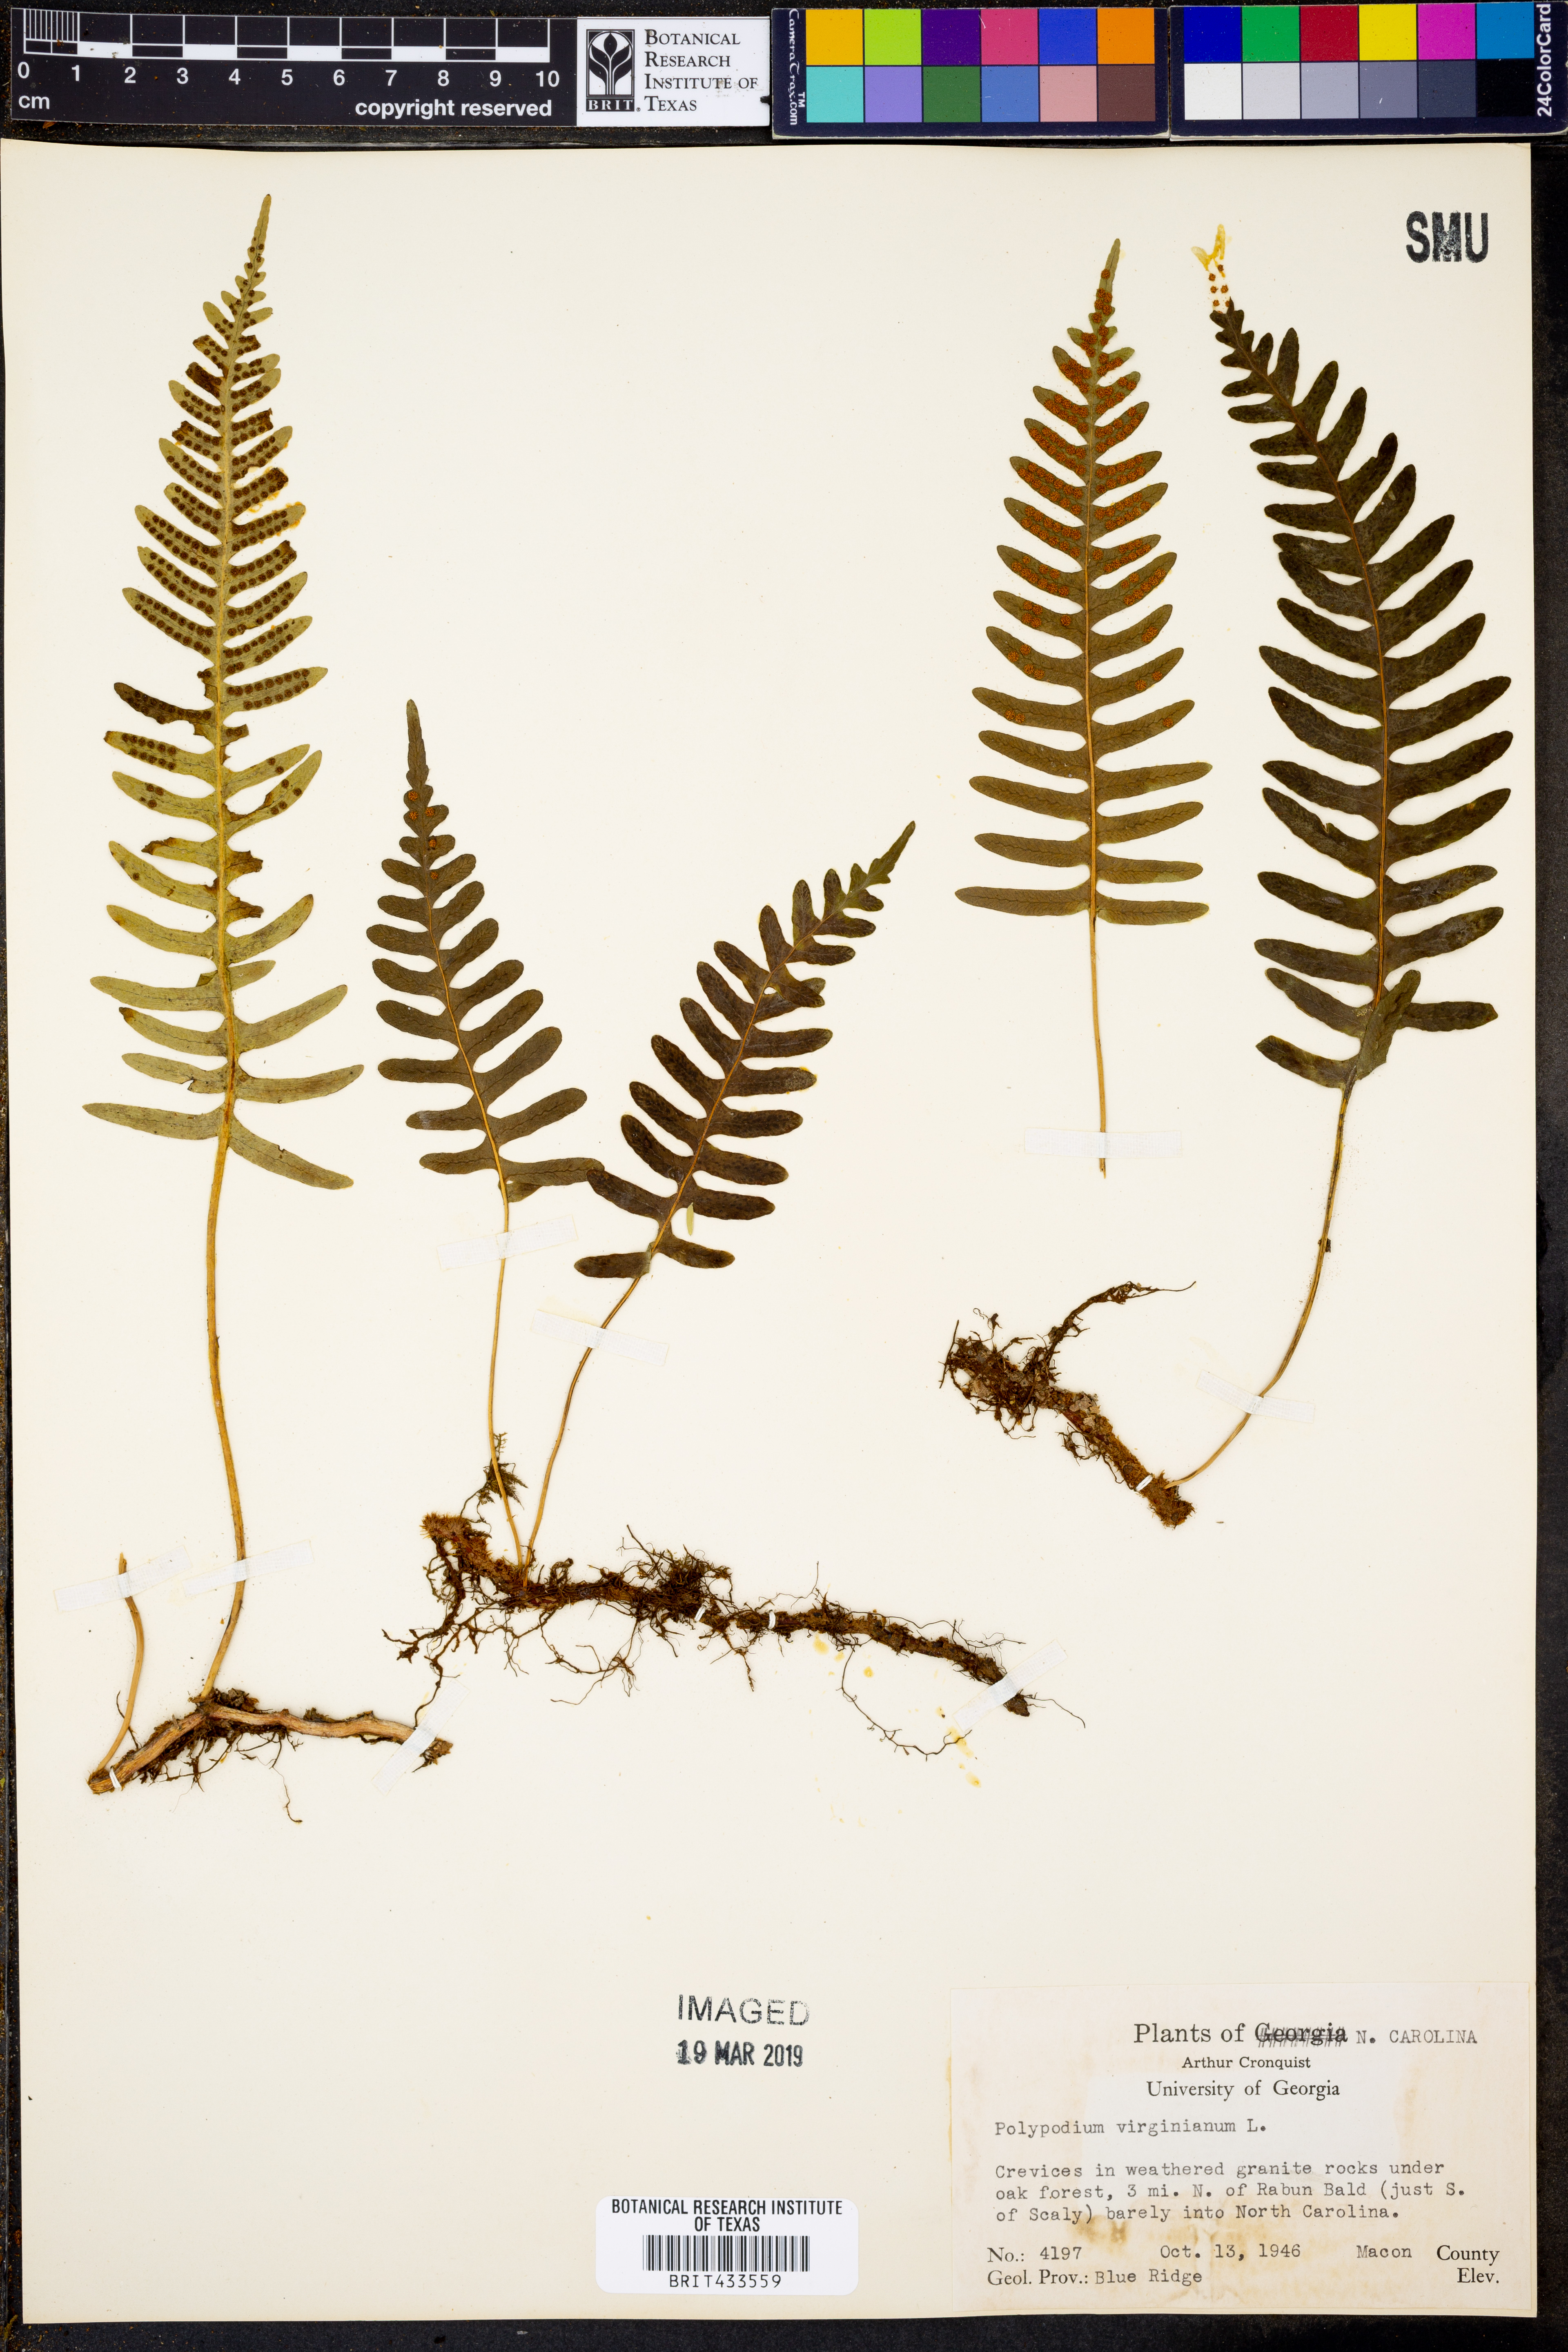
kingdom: Plantae
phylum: Tracheophyta
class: Polypodiopsida
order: Polypodiales
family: Polypodiaceae
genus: Polypodium
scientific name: Polypodium virginianum
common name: American wall fern
